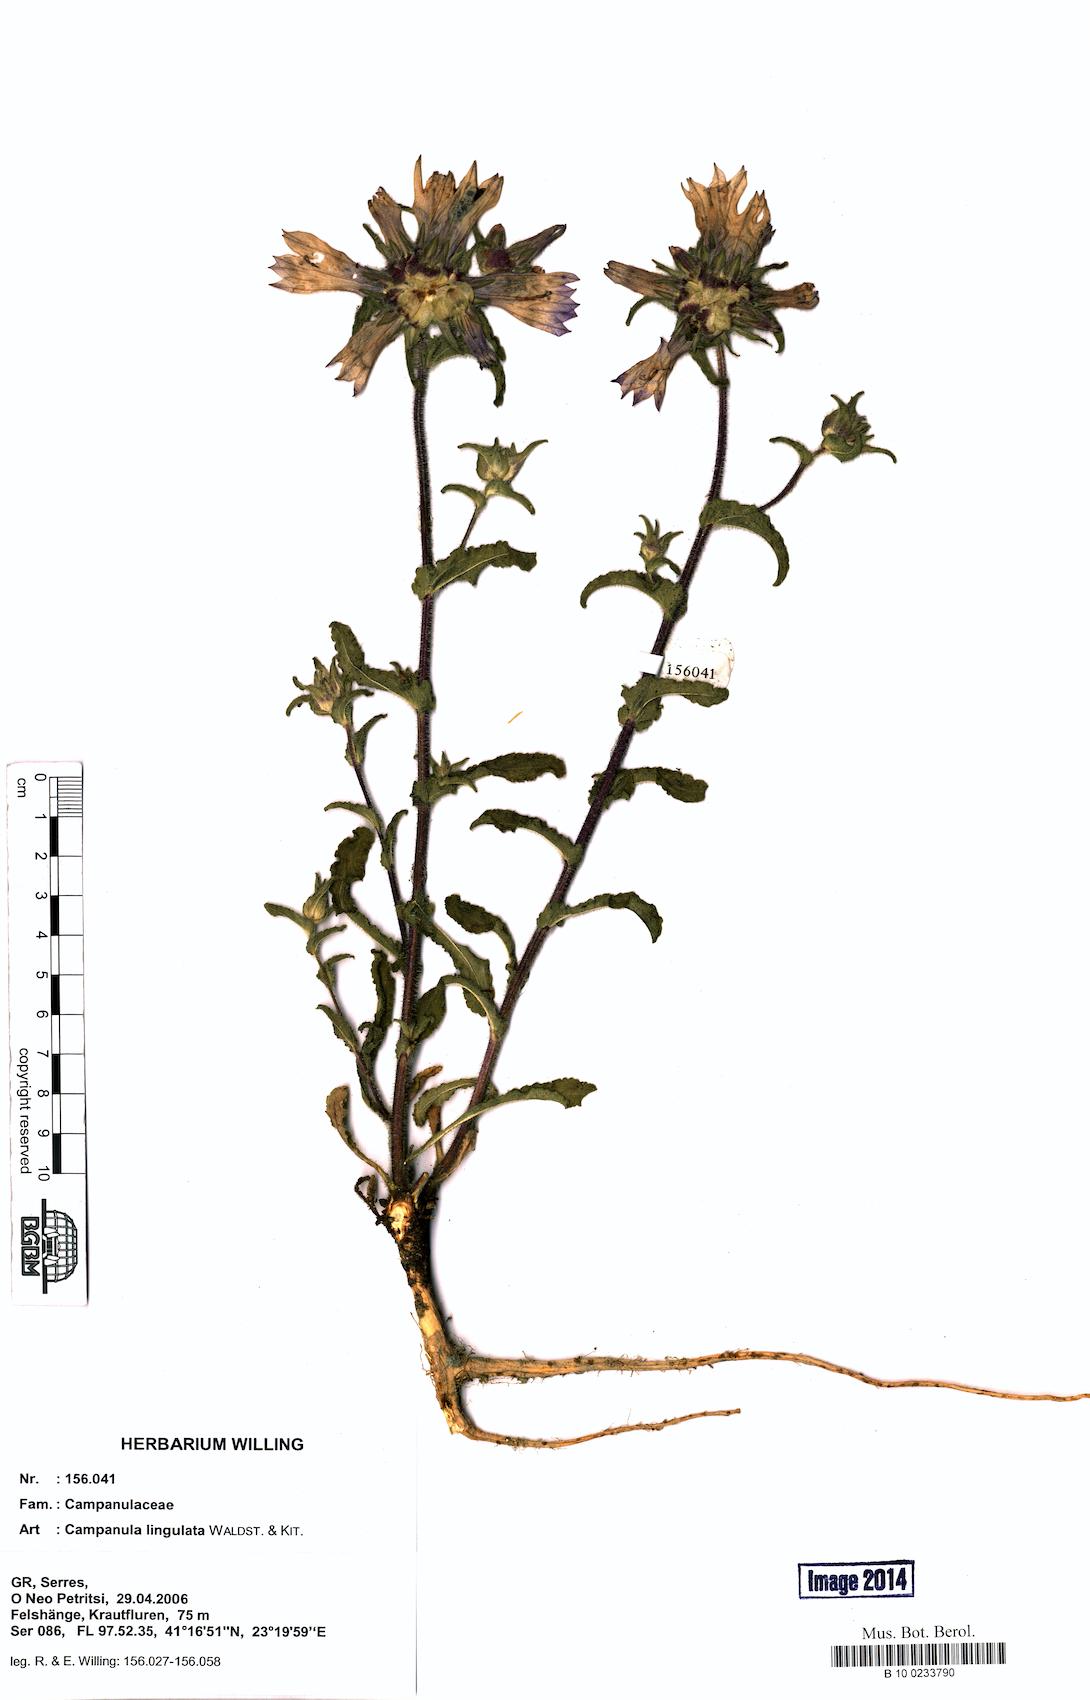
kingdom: Plantae
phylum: Tracheophyta
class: Magnoliopsida
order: Asterales
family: Campanulaceae
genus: Campanula
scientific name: Campanula lingulata
